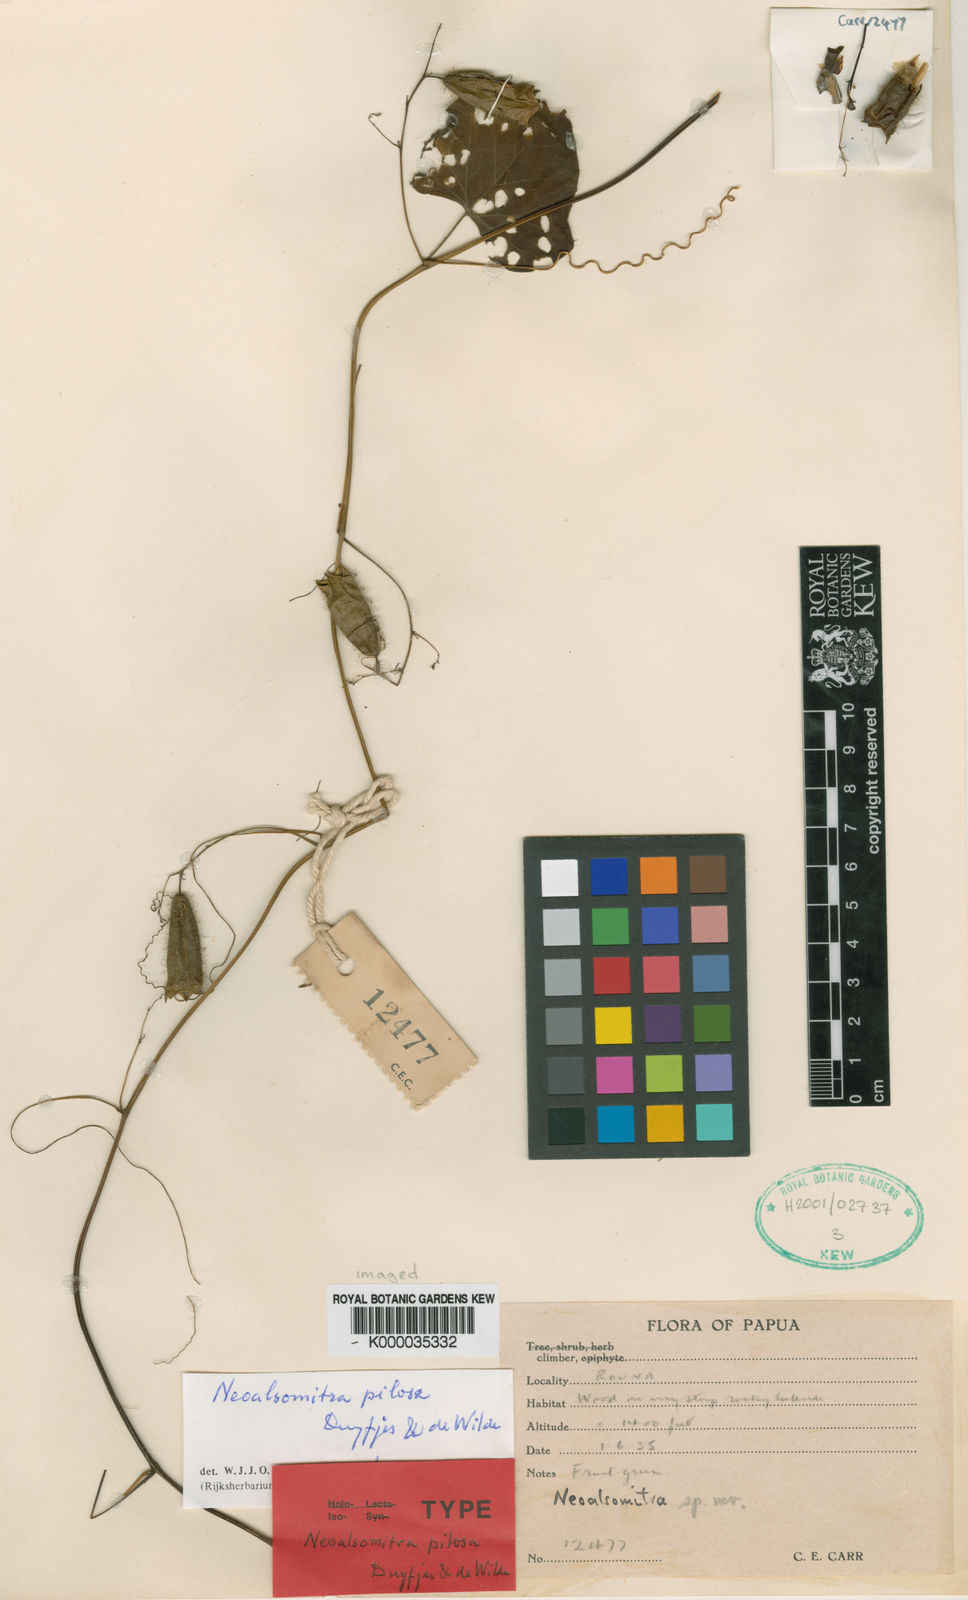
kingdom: Plantae
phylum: Tracheophyta
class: Magnoliopsida
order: Cucurbitales
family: Cucurbitaceae
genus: Neoalsomitra
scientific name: Neoalsomitra pilosa
